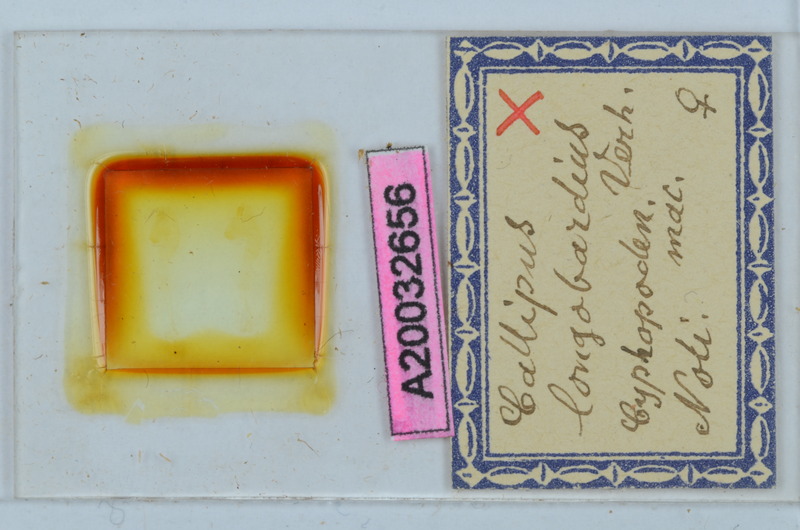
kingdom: Animalia
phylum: Arthropoda
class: Diplopoda
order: Callipodida
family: Callipodidae
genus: Callipus
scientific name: Callipus foetidissimus
